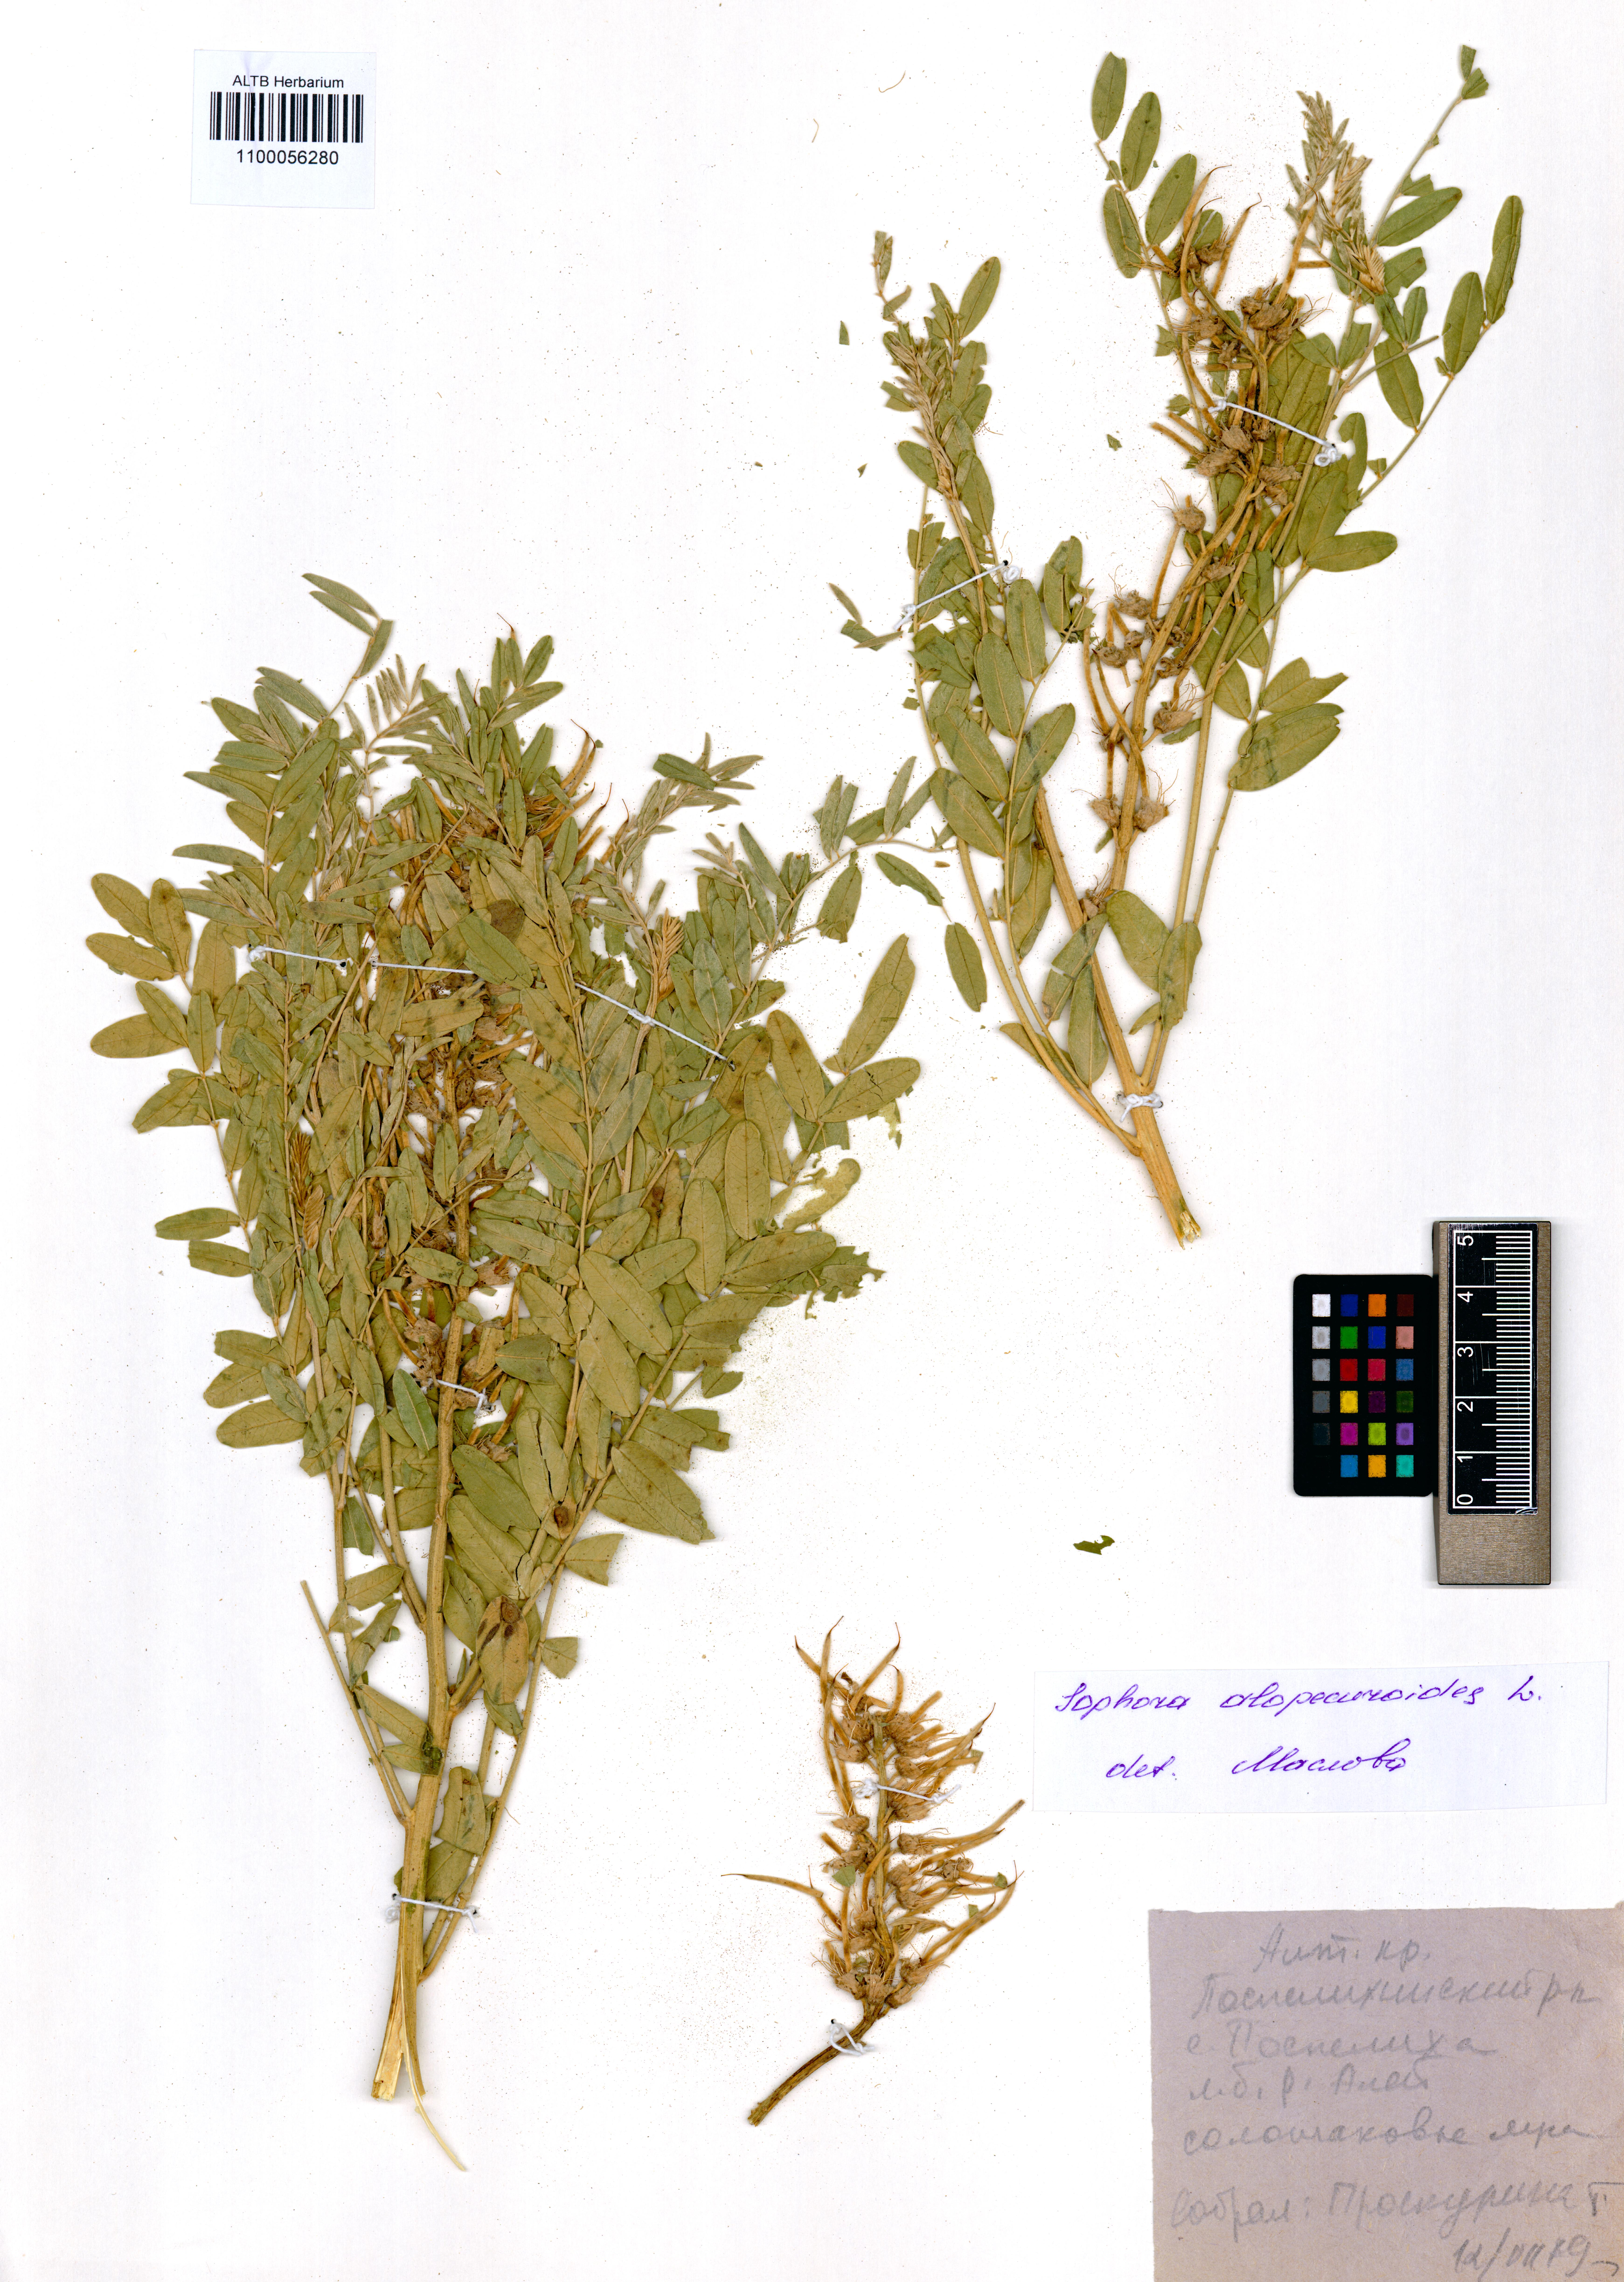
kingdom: Plantae
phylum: Tracheophyta
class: Magnoliopsida
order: Fabales
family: Fabaceae
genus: Sophora
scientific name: Sophora alopecuroides
